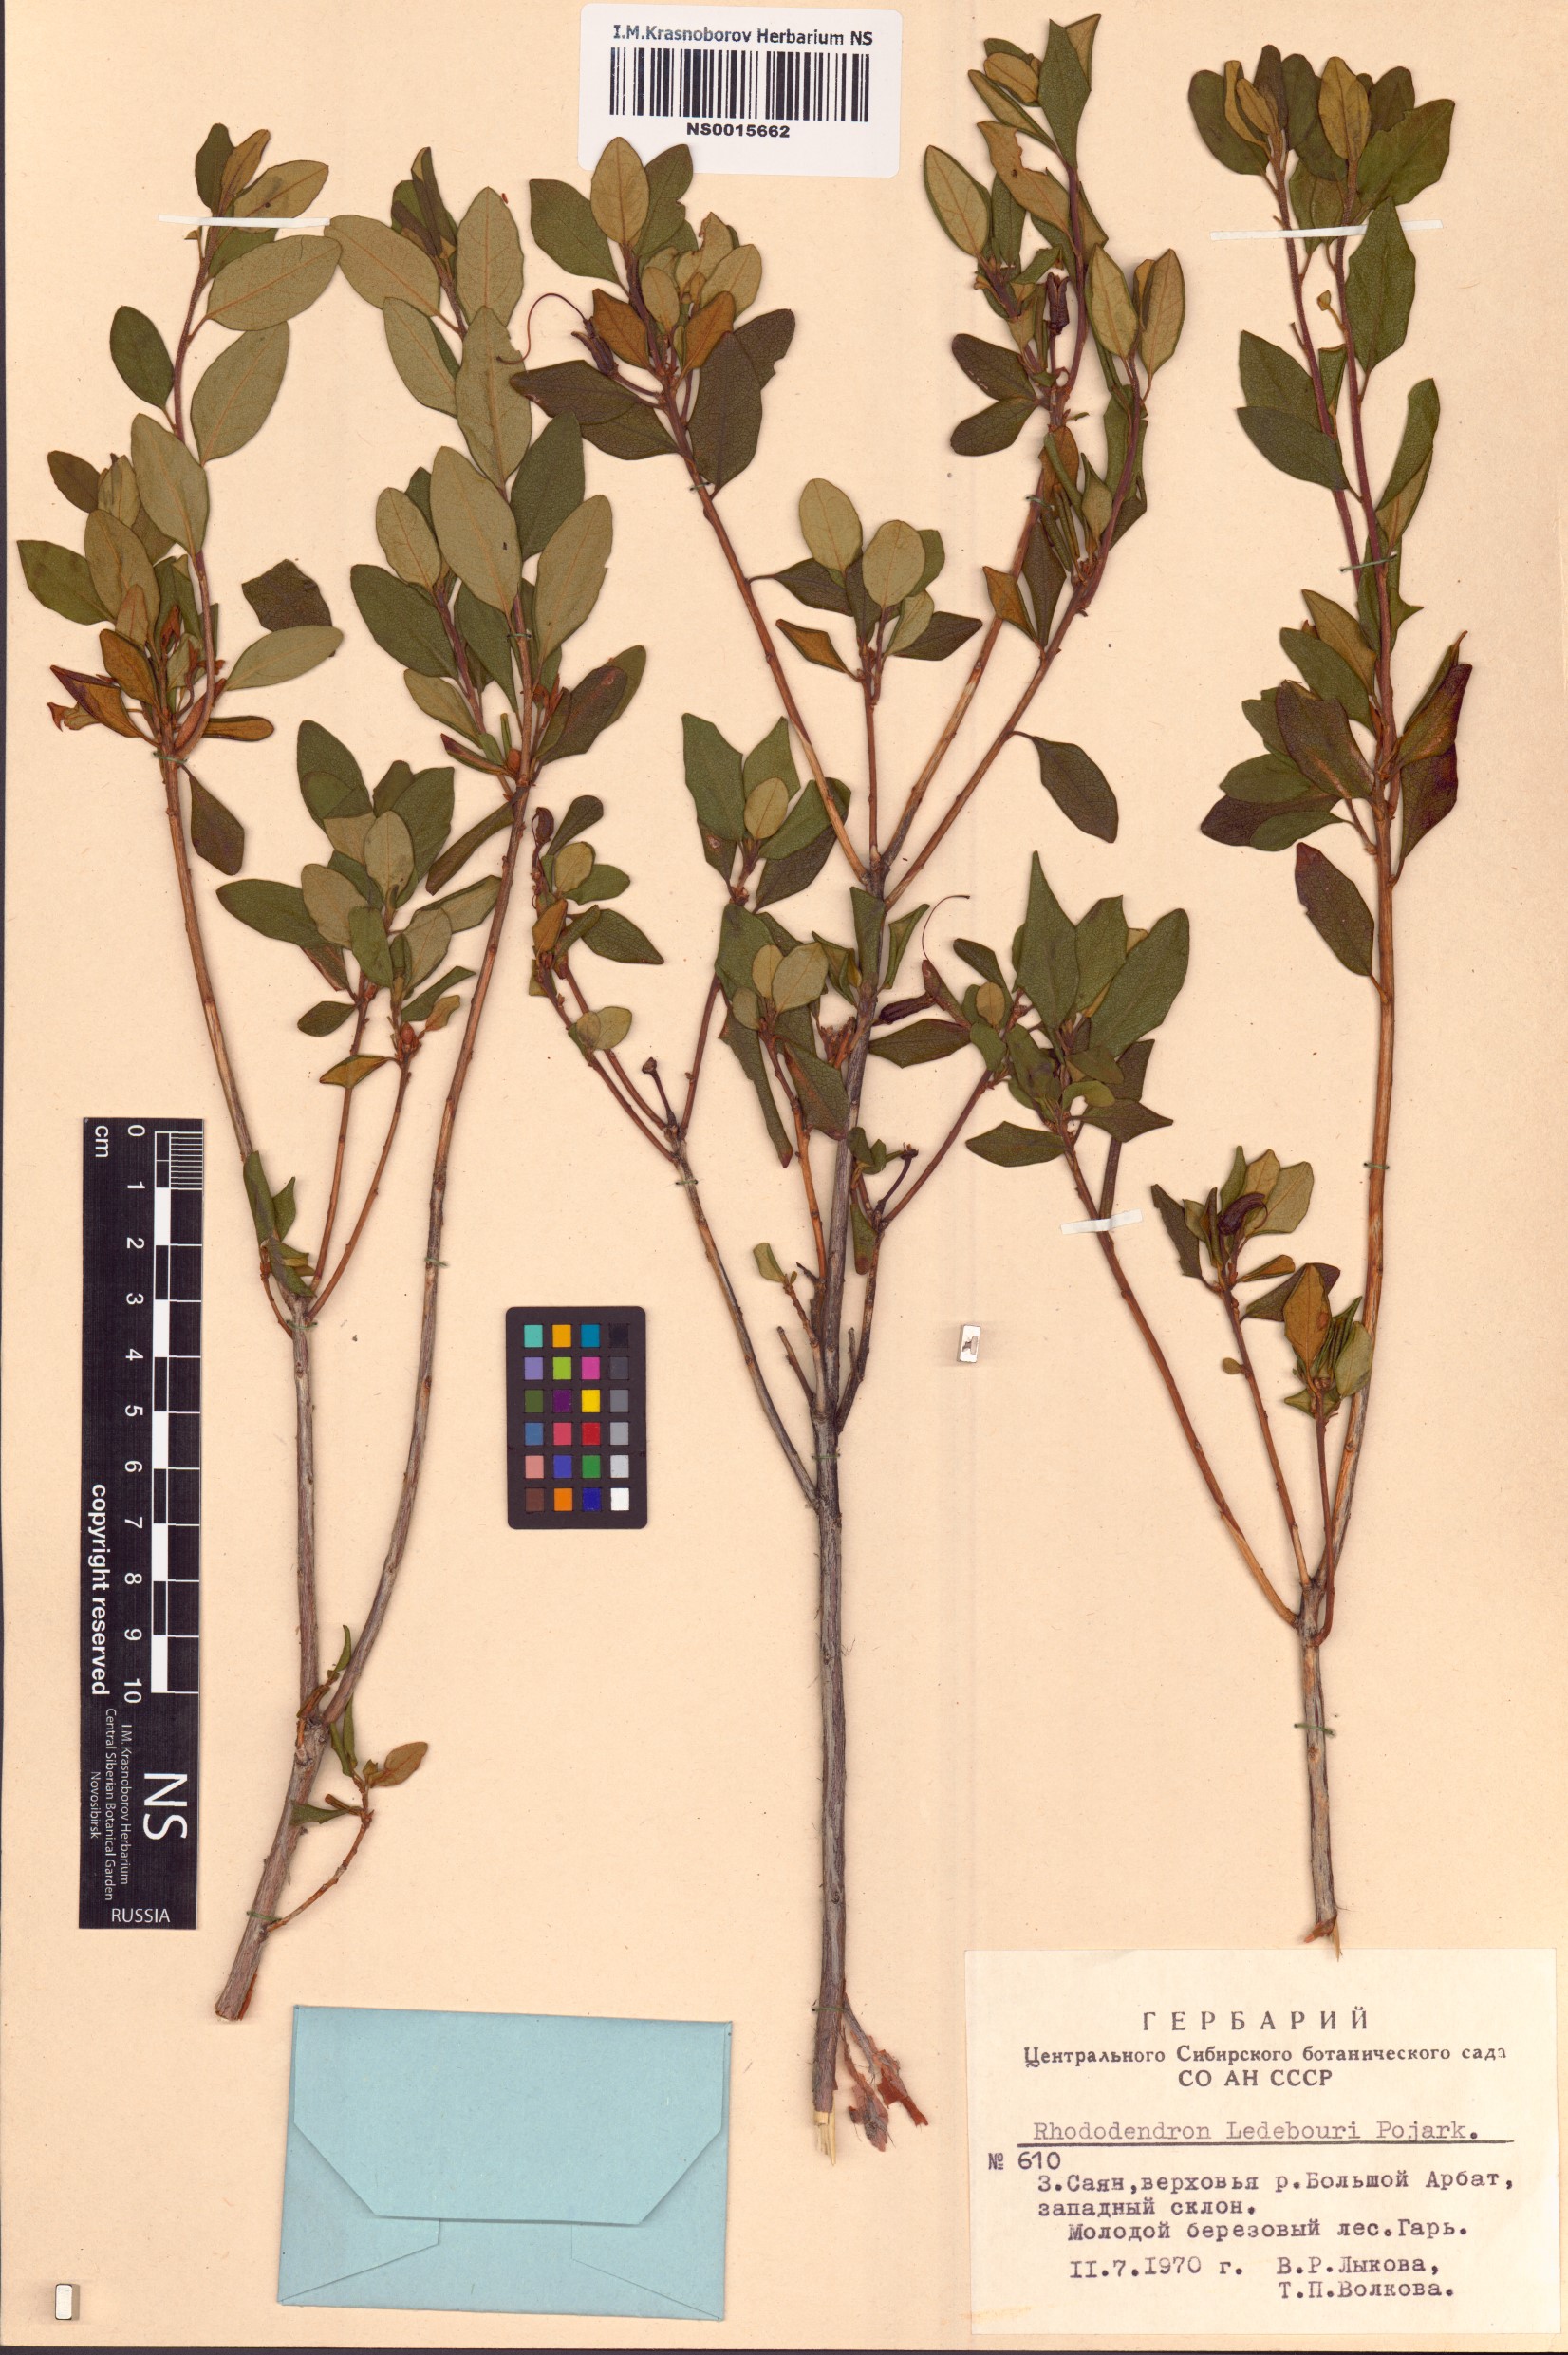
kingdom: Plantae
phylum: Tracheophyta
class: Magnoliopsida
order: Ericales
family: Ericaceae
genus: Rhododendron
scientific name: Rhododendron dauricum
